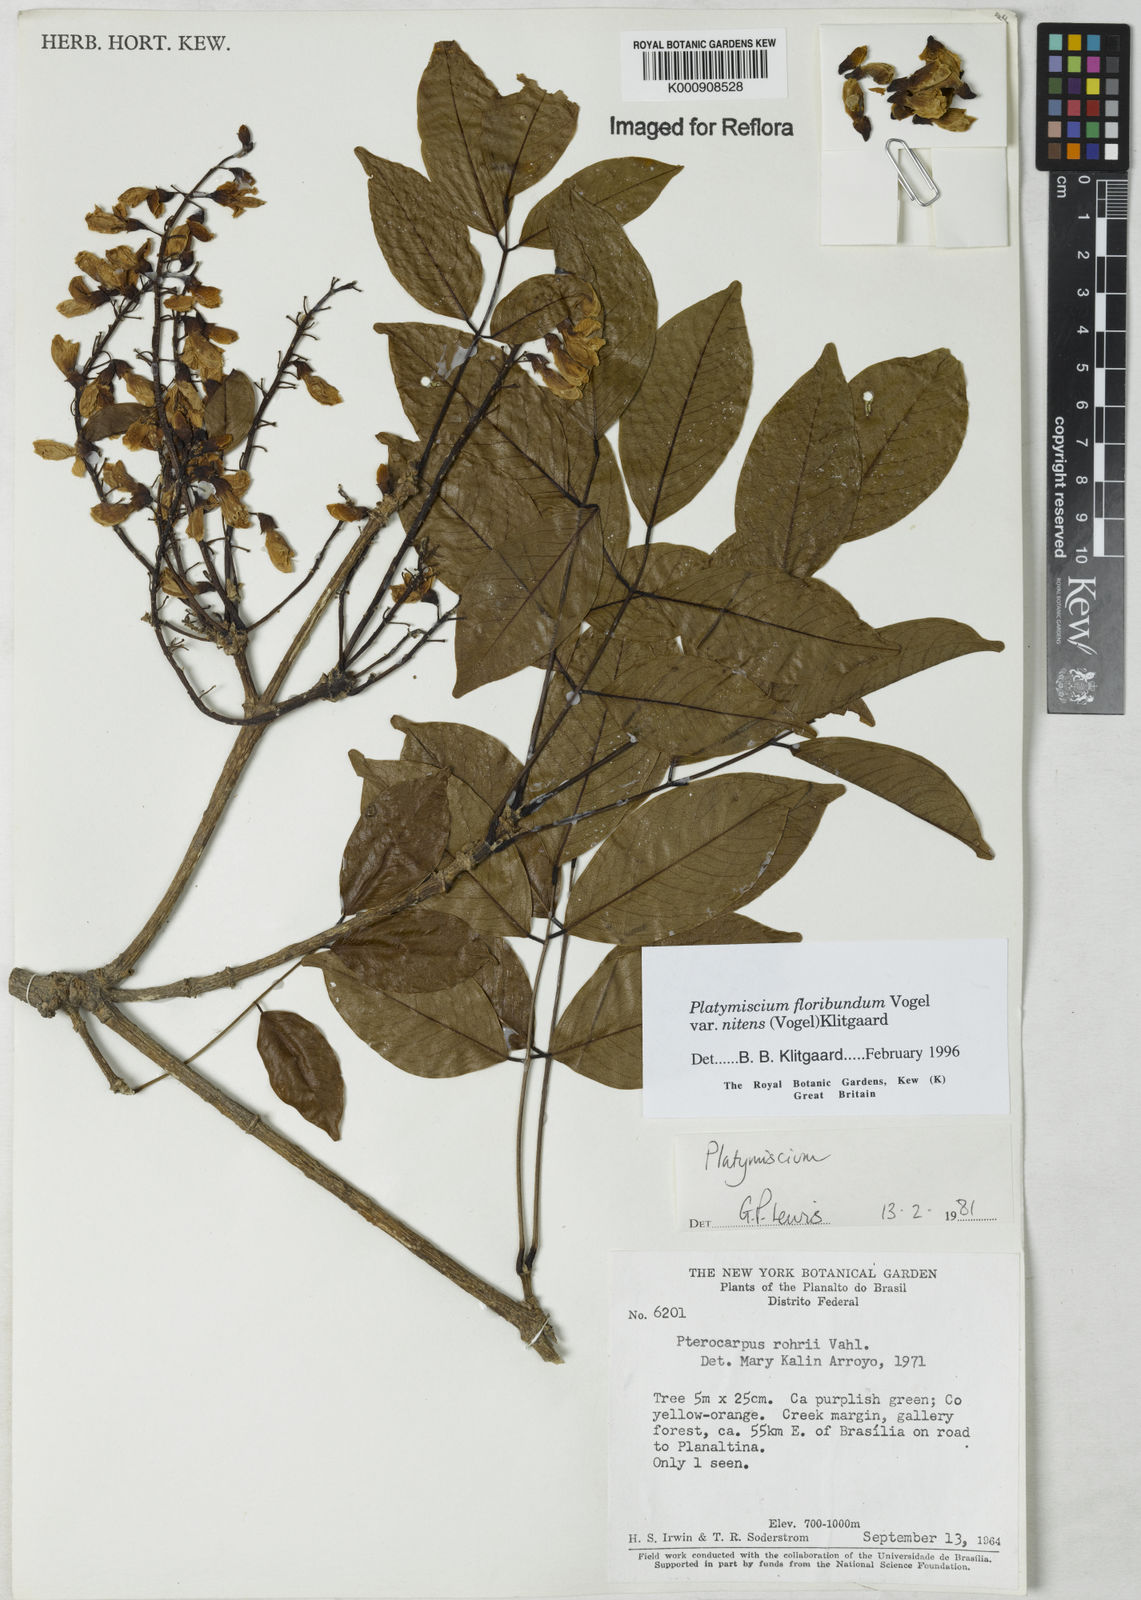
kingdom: Plantae
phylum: Tracheophyta
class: Magnoliopsida
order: Fabales
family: Fabaceae
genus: Platymiscium
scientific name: Platymiscium floribundum
